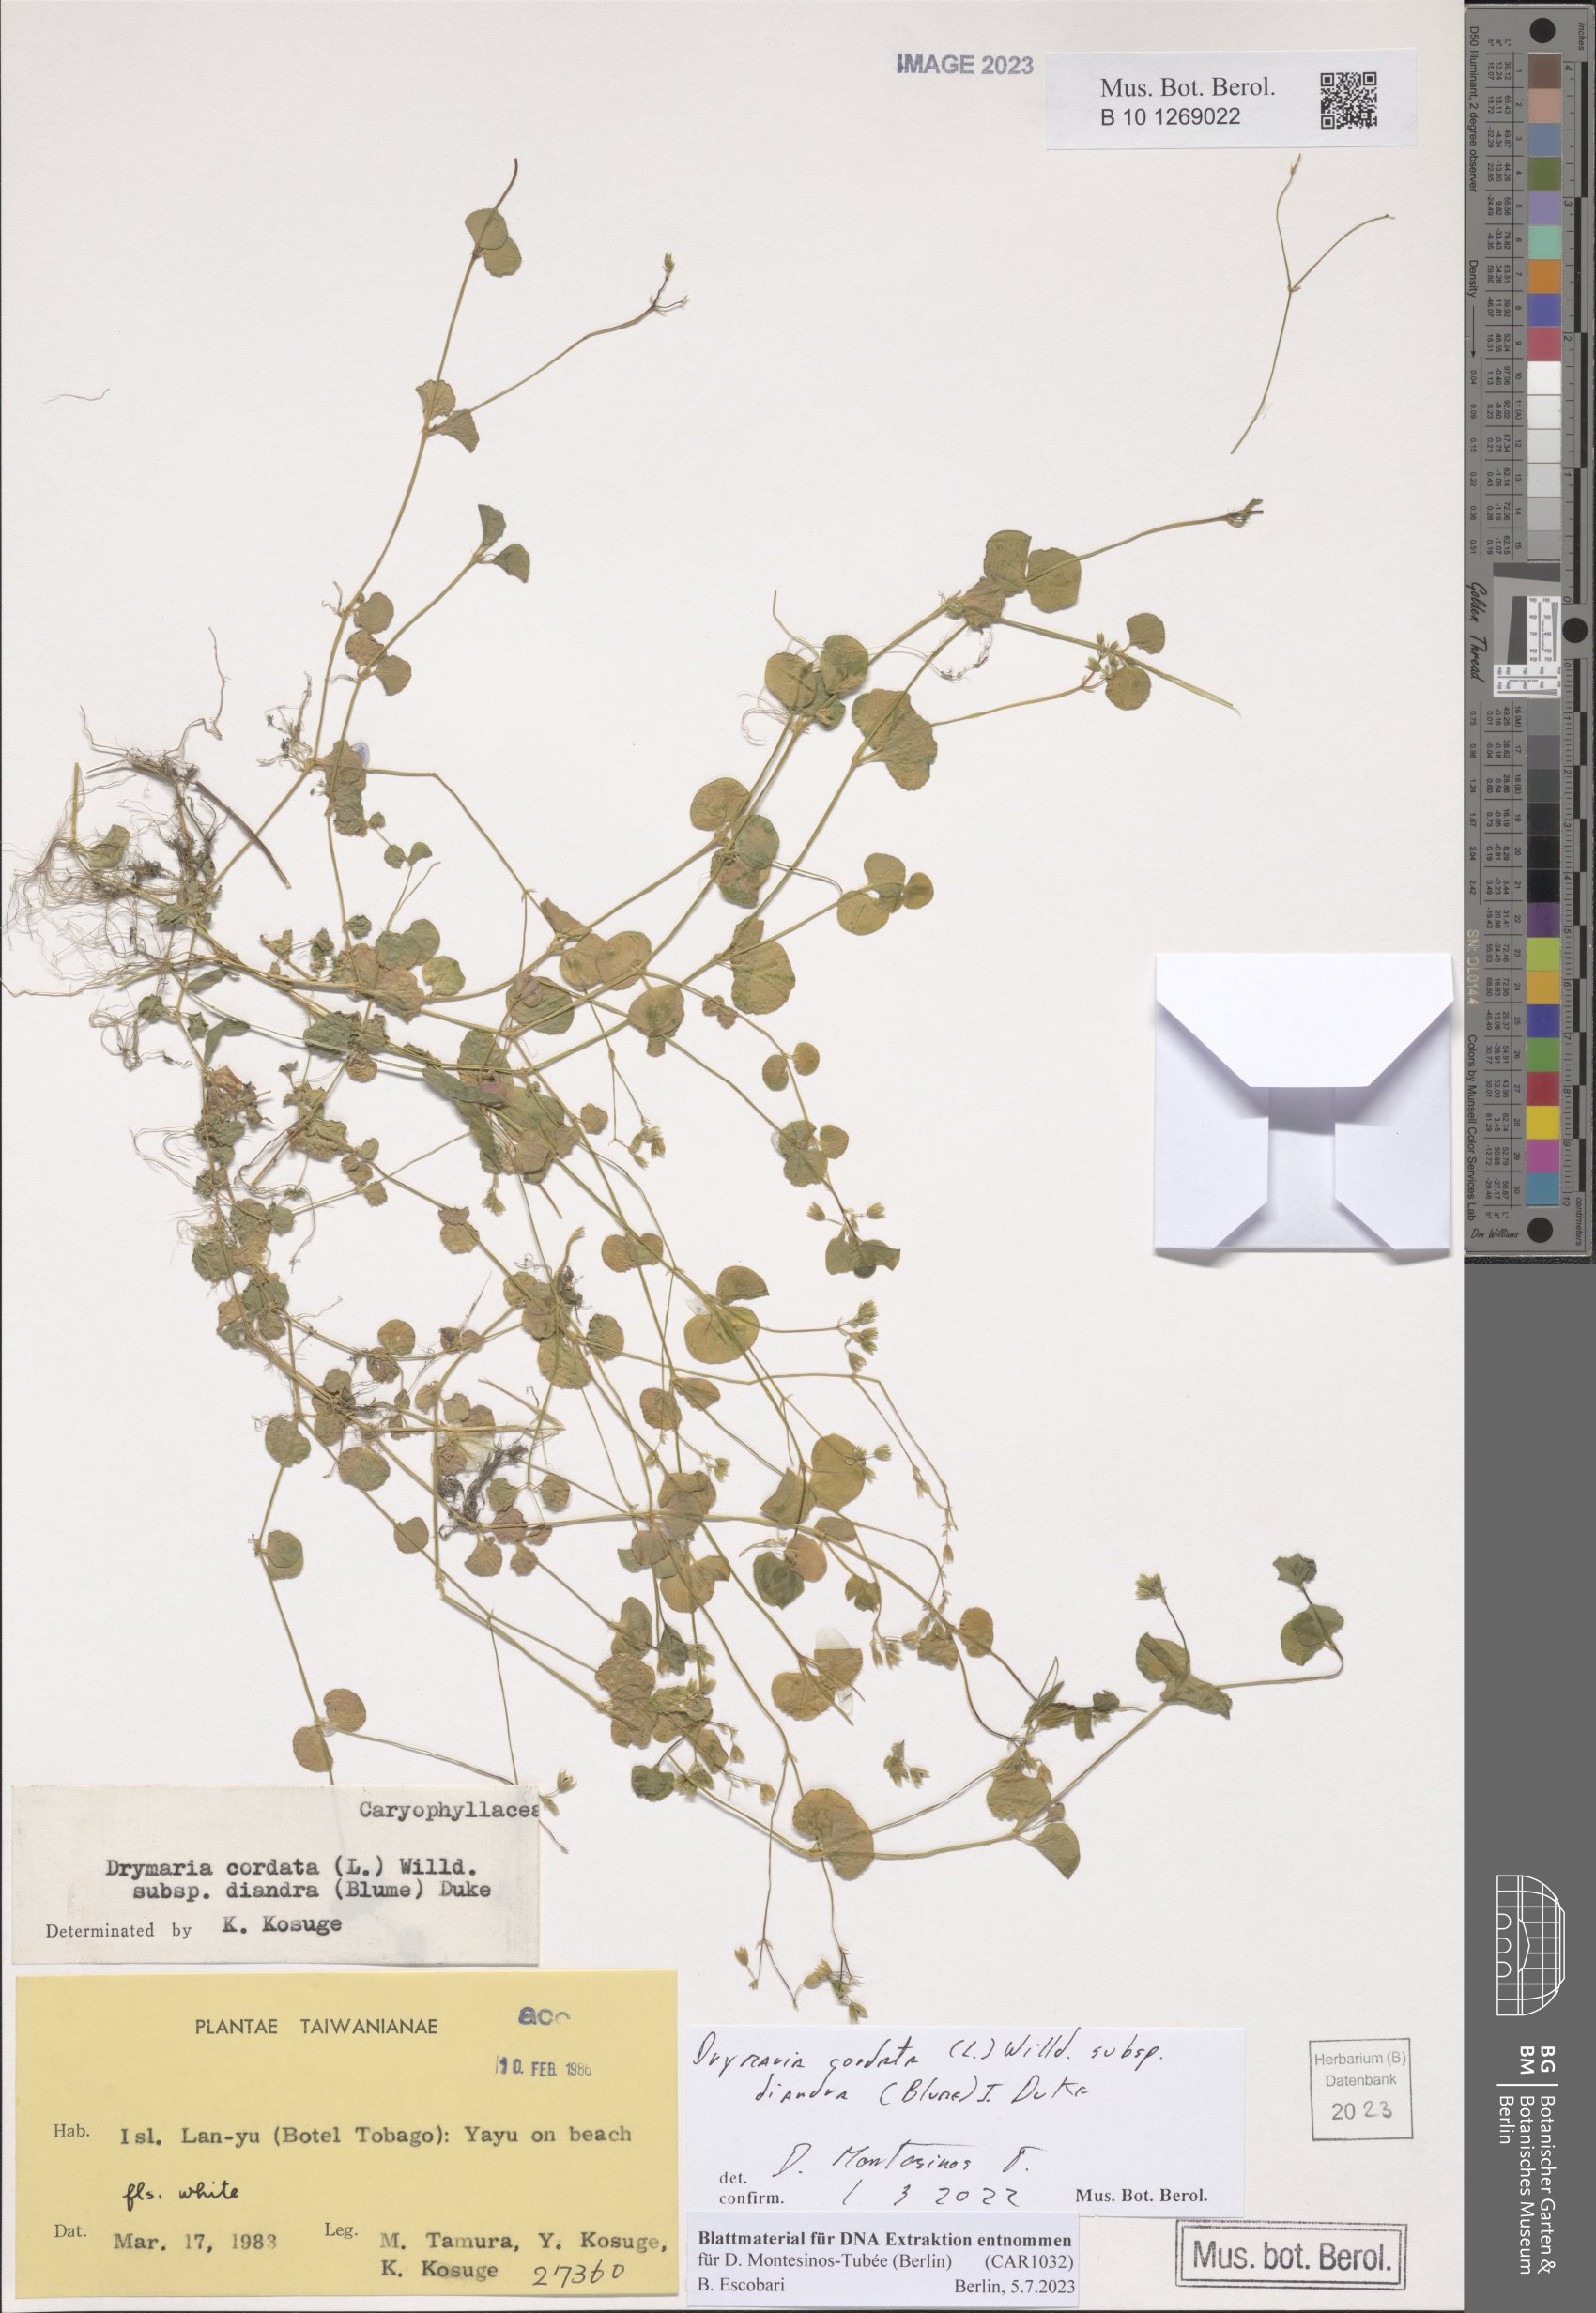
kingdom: Plantae
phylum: Tracheophyta
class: Magnoliopsida
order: Caryophyllales
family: Caryophyllaceae
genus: Drymaria
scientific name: Drymaria diandra
